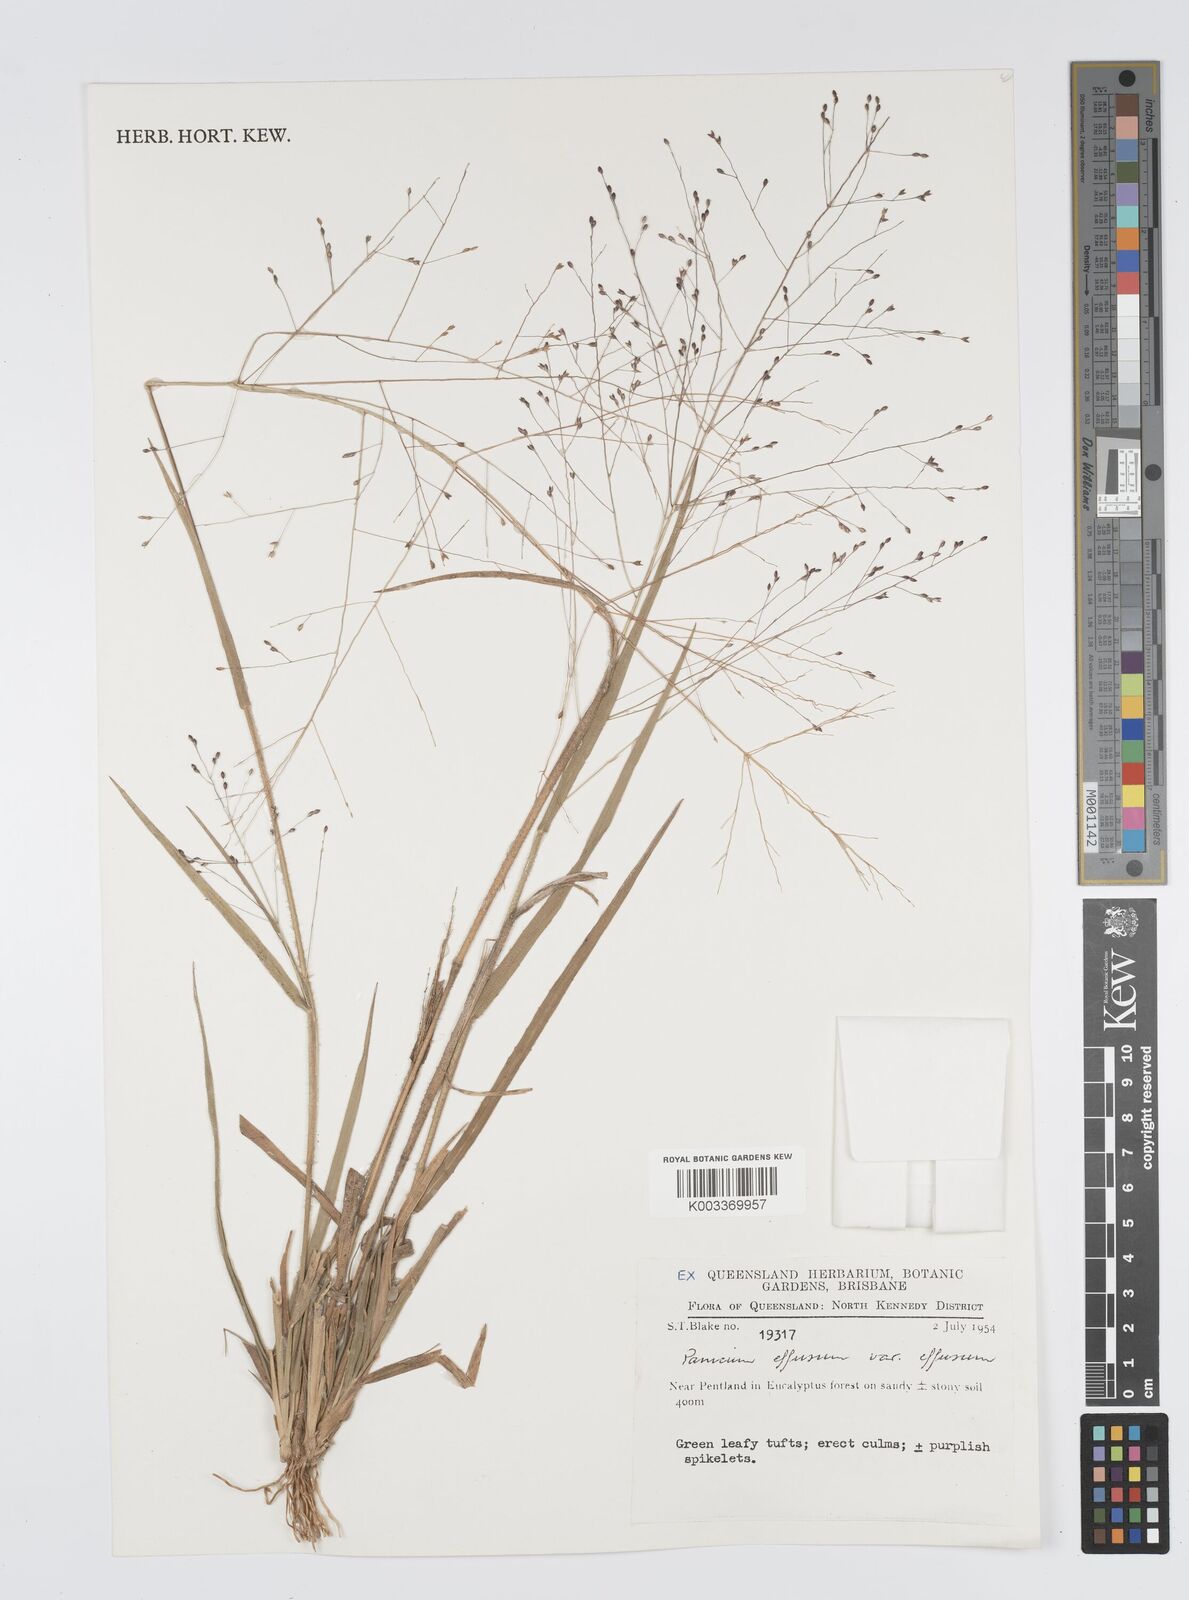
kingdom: Plantae
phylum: Tracheophyta
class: Liliopsida
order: Poales
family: Poaceae
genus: Panicum
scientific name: Panicum effusum
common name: Hairy panic grass
